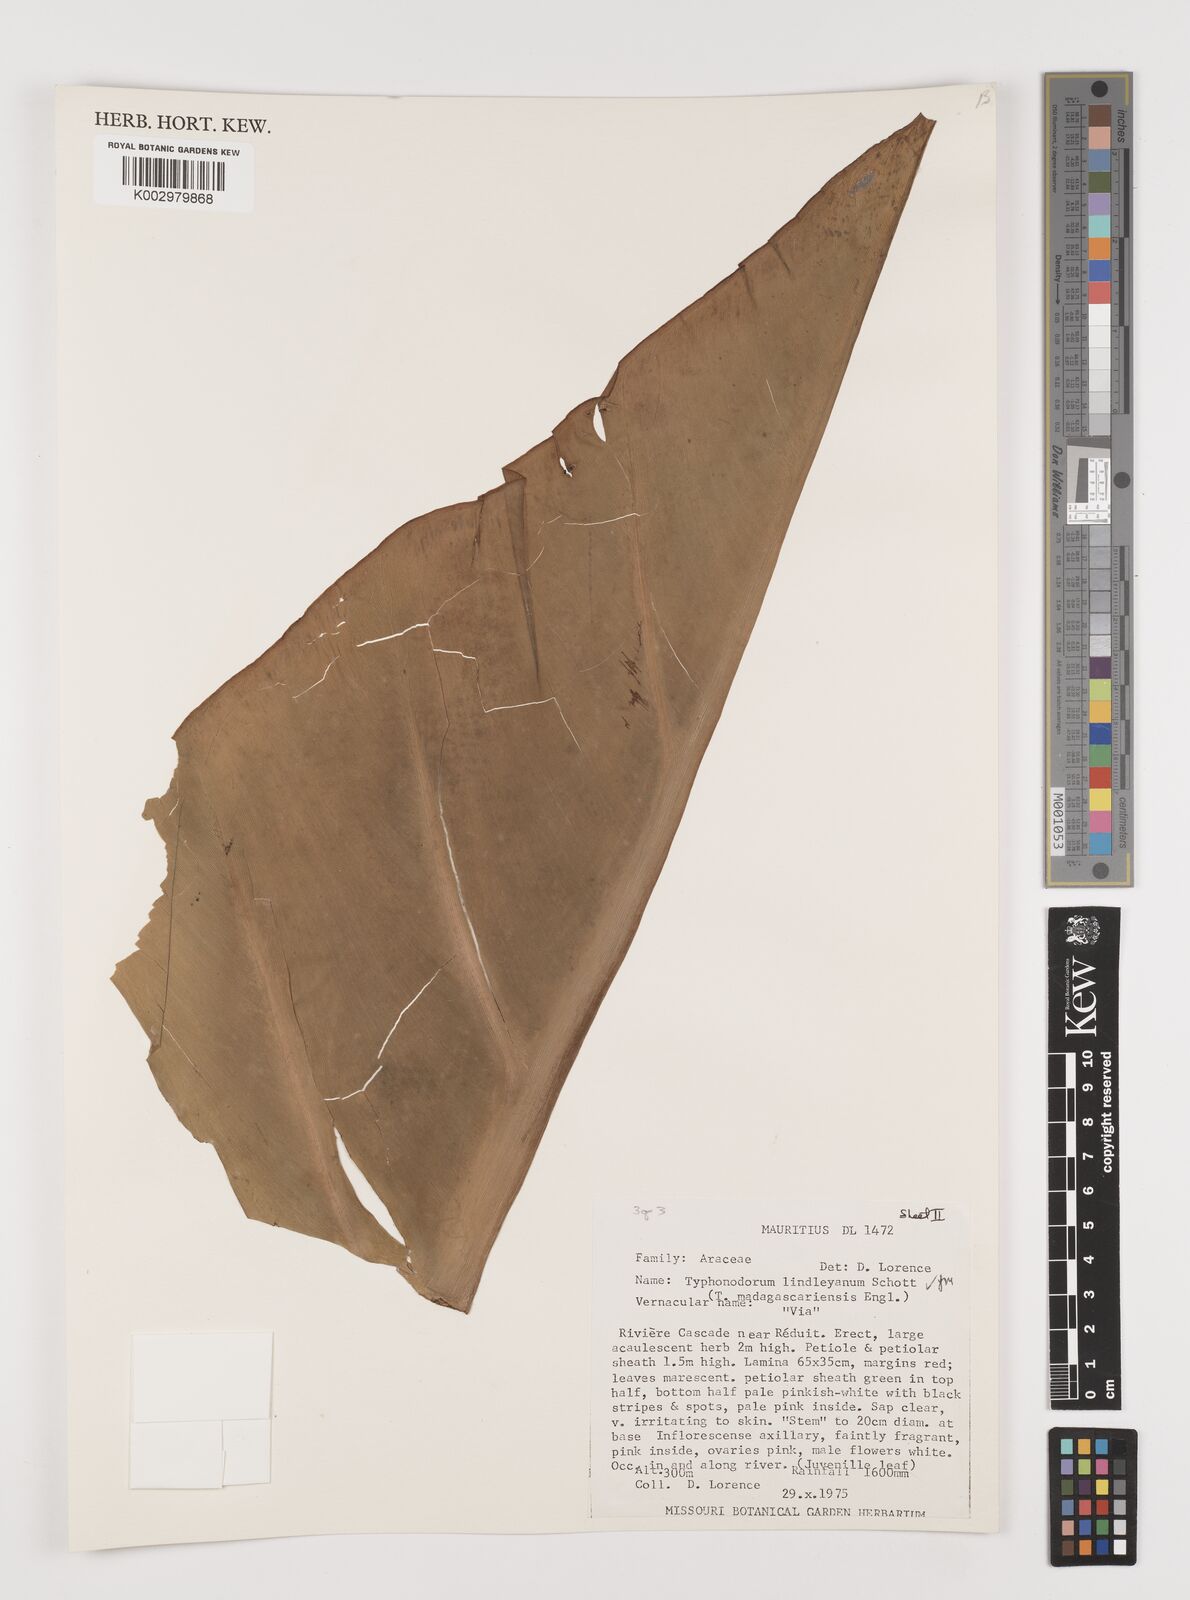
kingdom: Plantae
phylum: Tracheophyta
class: Liliopsida
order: Alismatales
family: Araceae
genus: Typhonodorum
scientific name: Typhonodorum lindleyanum
